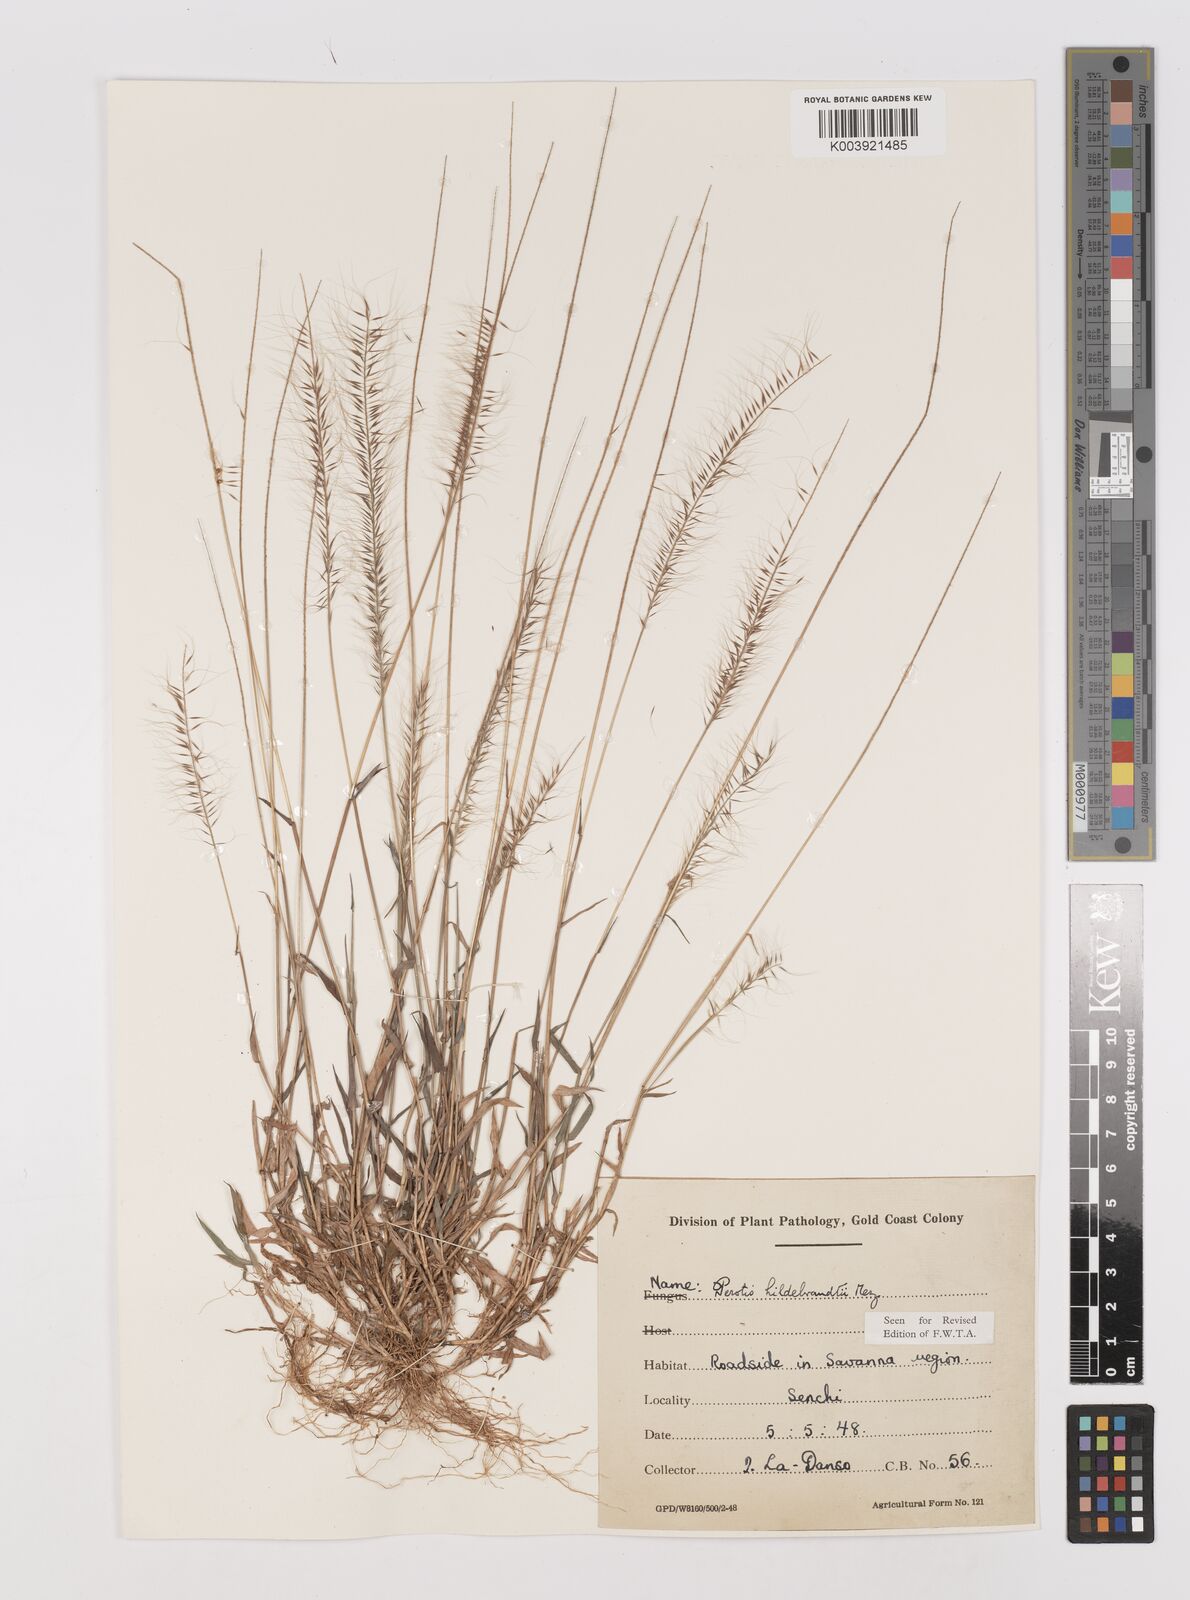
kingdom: Plantae
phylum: Tracheophyta
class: Liliopsida
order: Poales
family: Poaceae
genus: Perotis
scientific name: Perotis hildebrandtii
